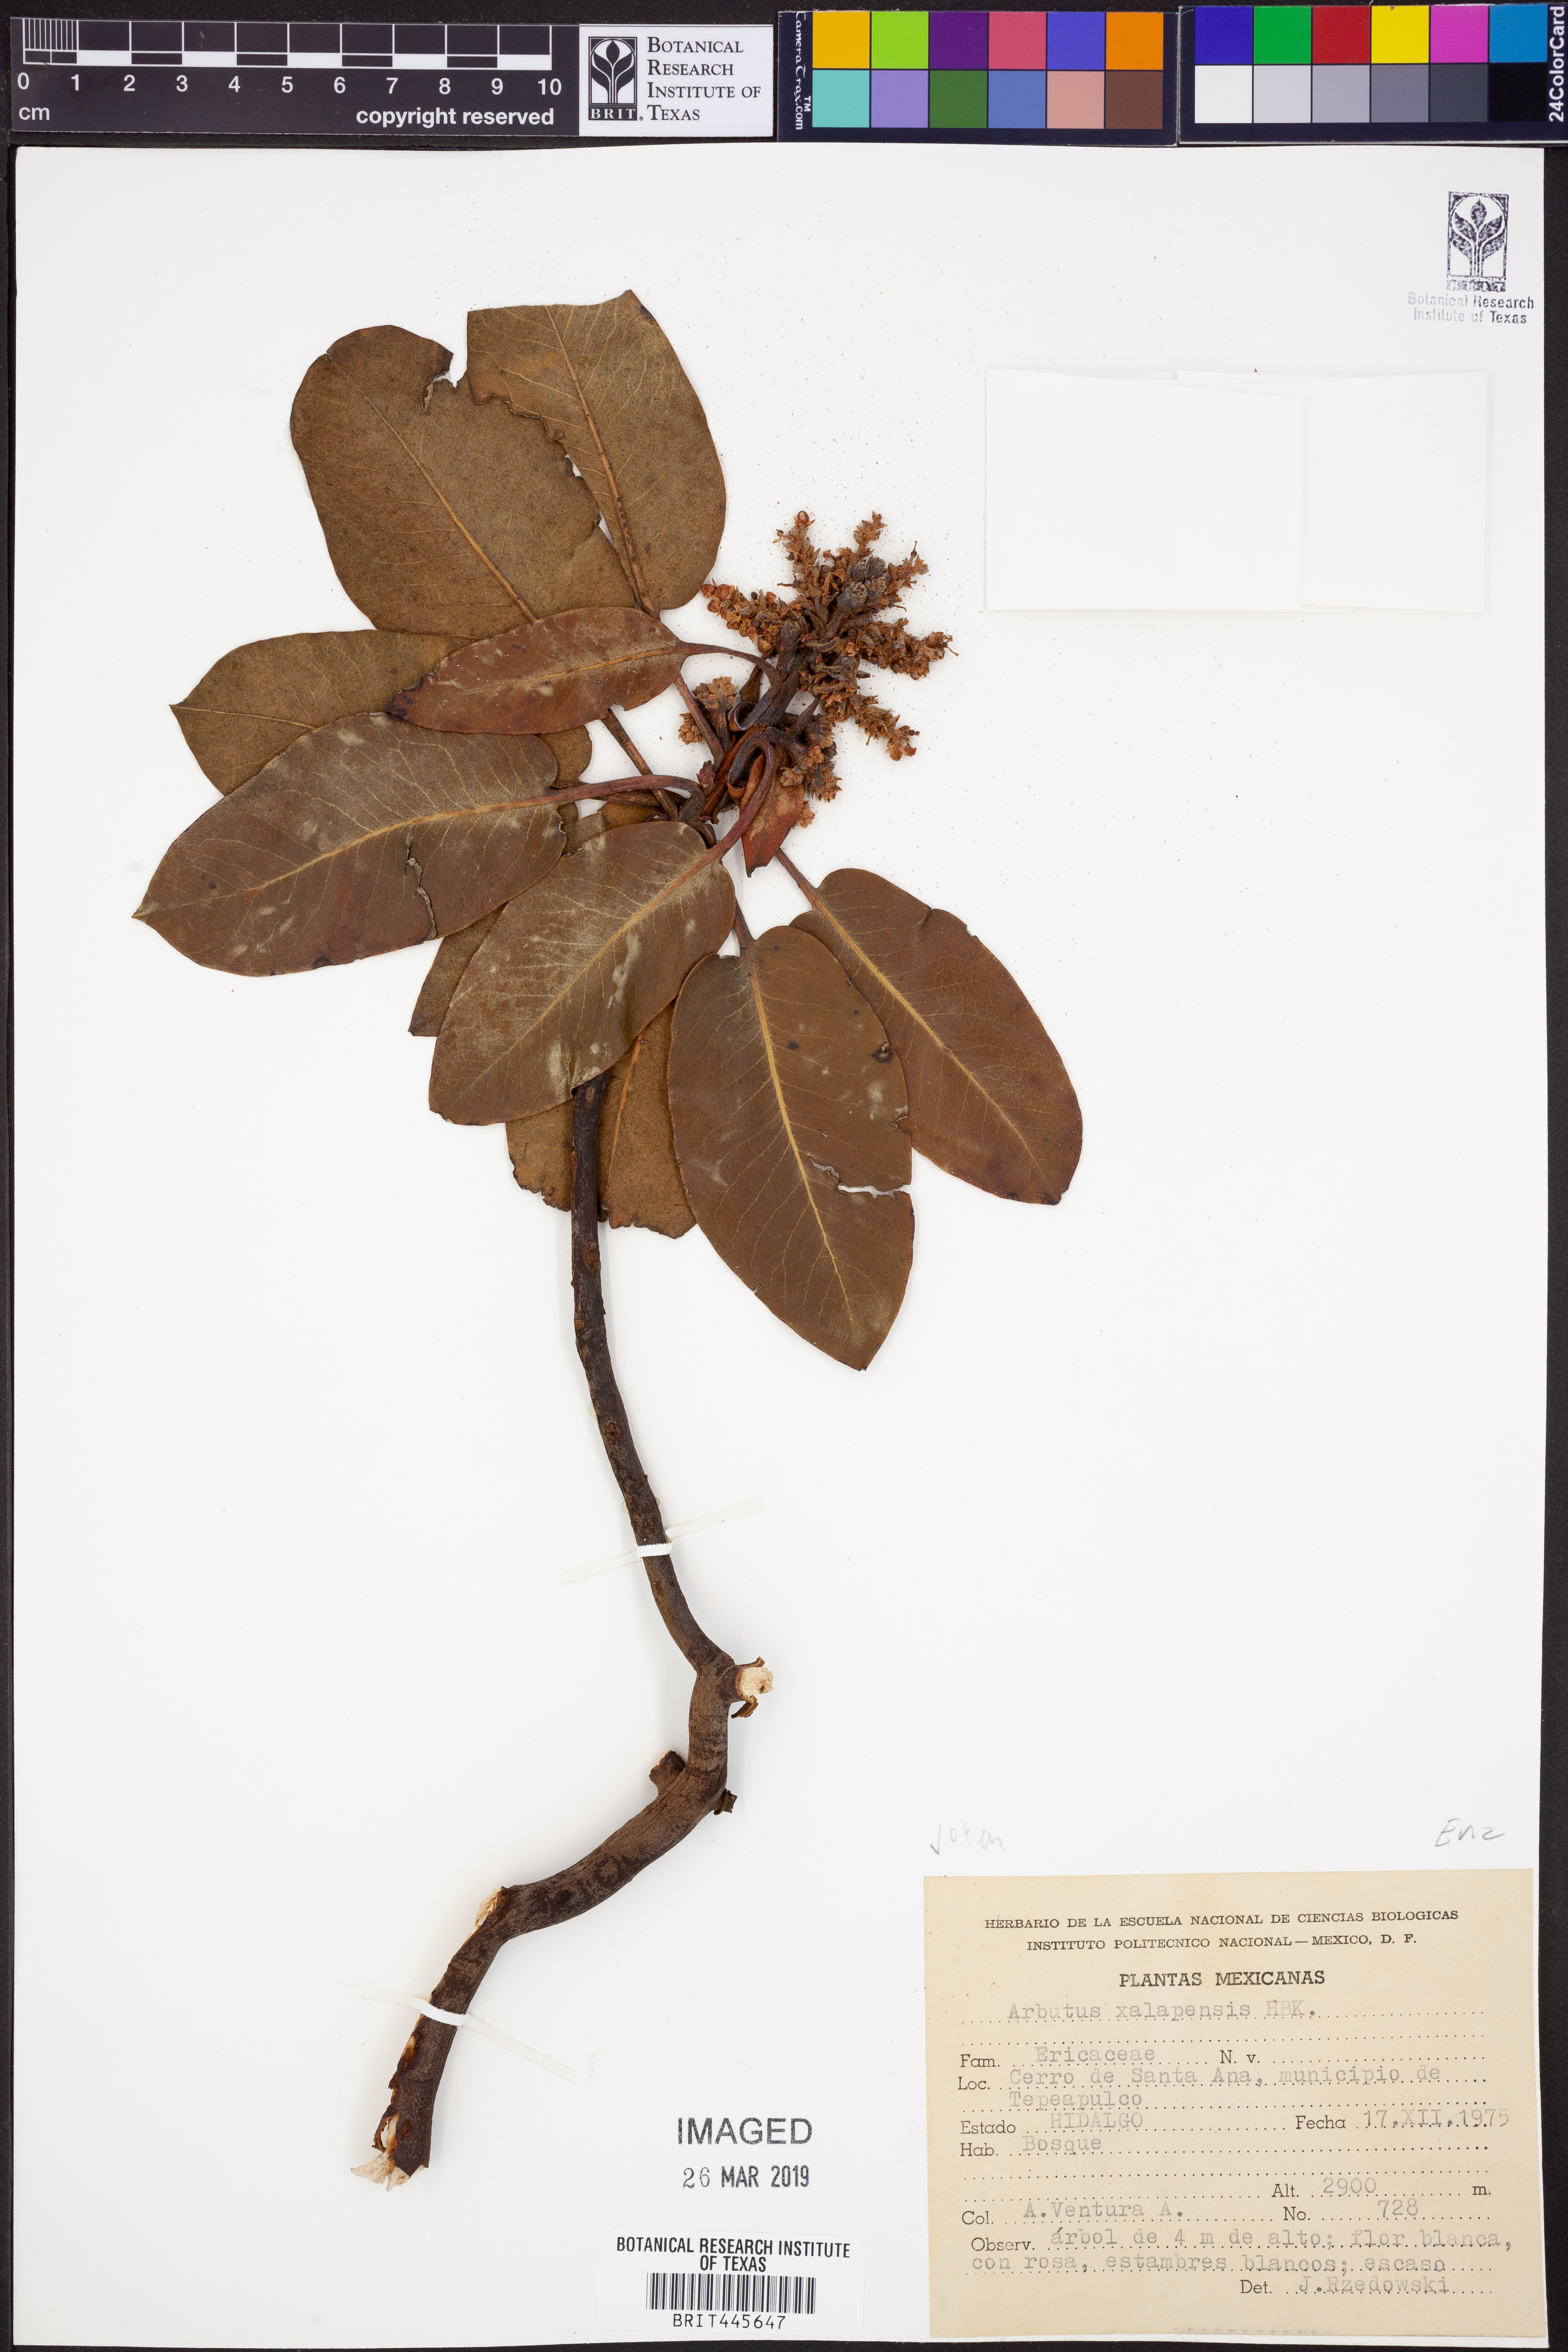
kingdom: Plantae
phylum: Tracheophyta
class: Magnoliopsida
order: Ericales
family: Ericaceae
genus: Arbutus
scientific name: Arbutus xalapensis
